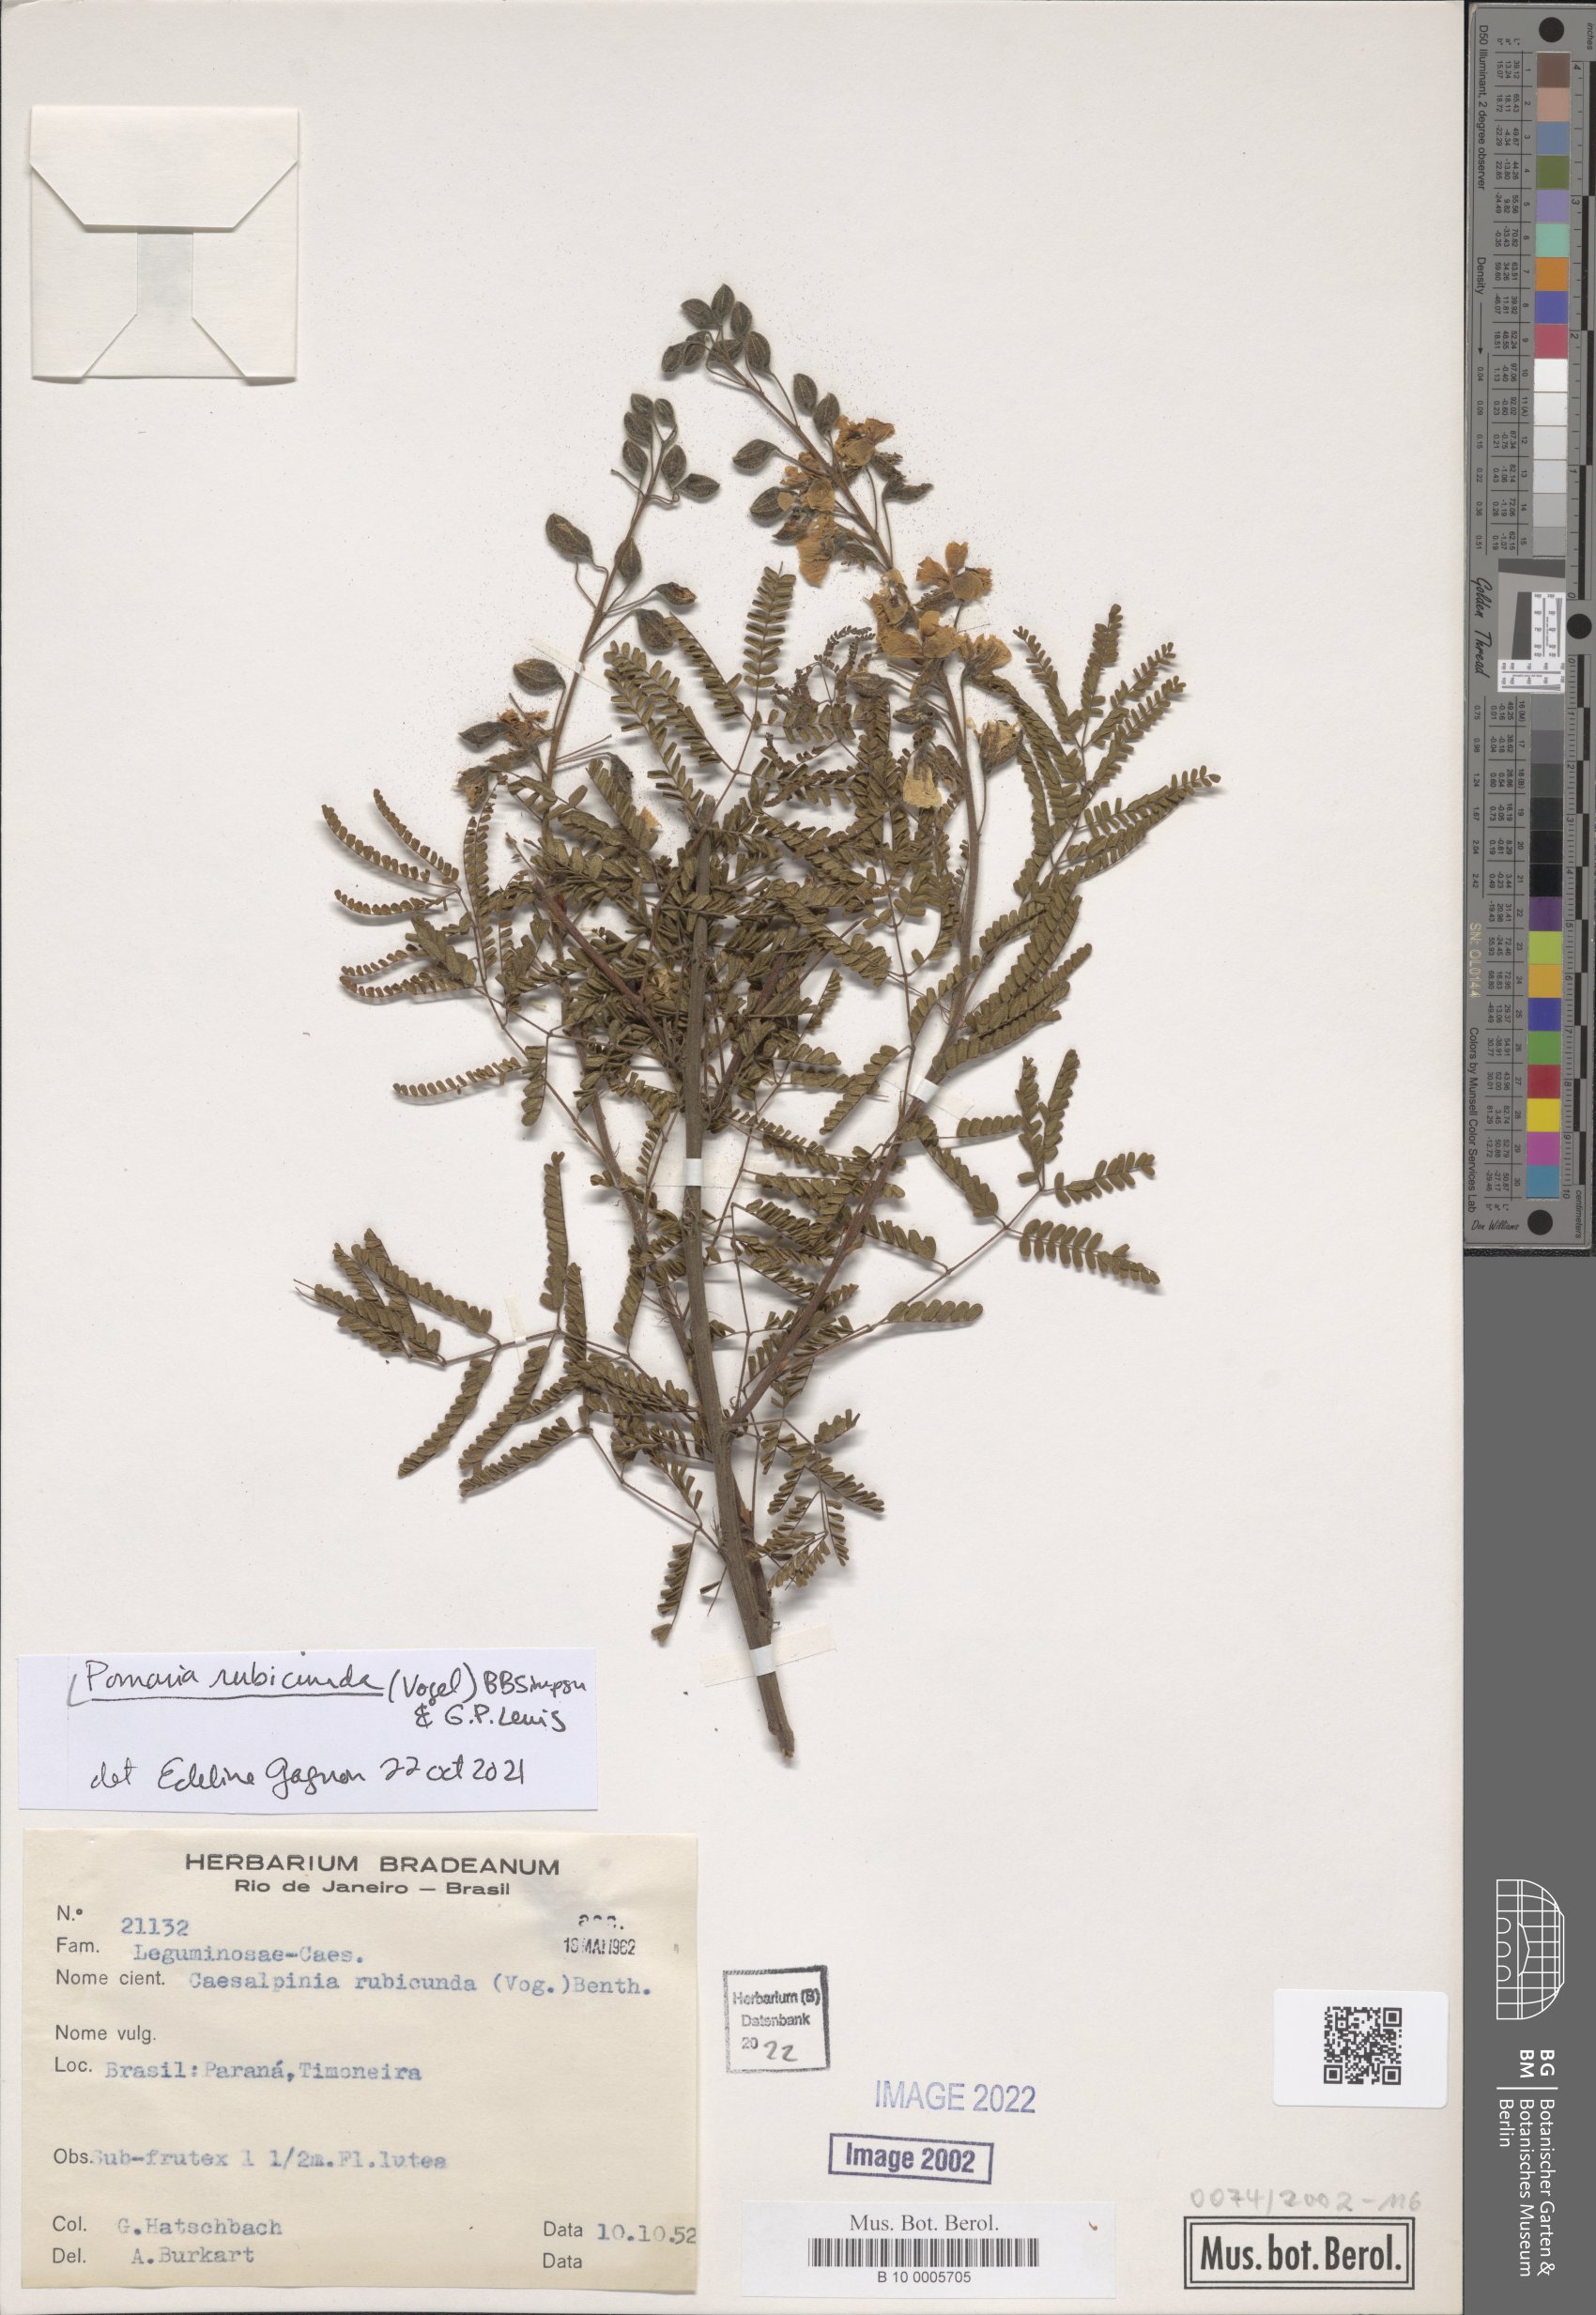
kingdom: Plantae
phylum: Tracheophyta
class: Magnoliopsida
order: Fabales
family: Fabaceae
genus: Pomaria
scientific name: Pomaria rubicunda
